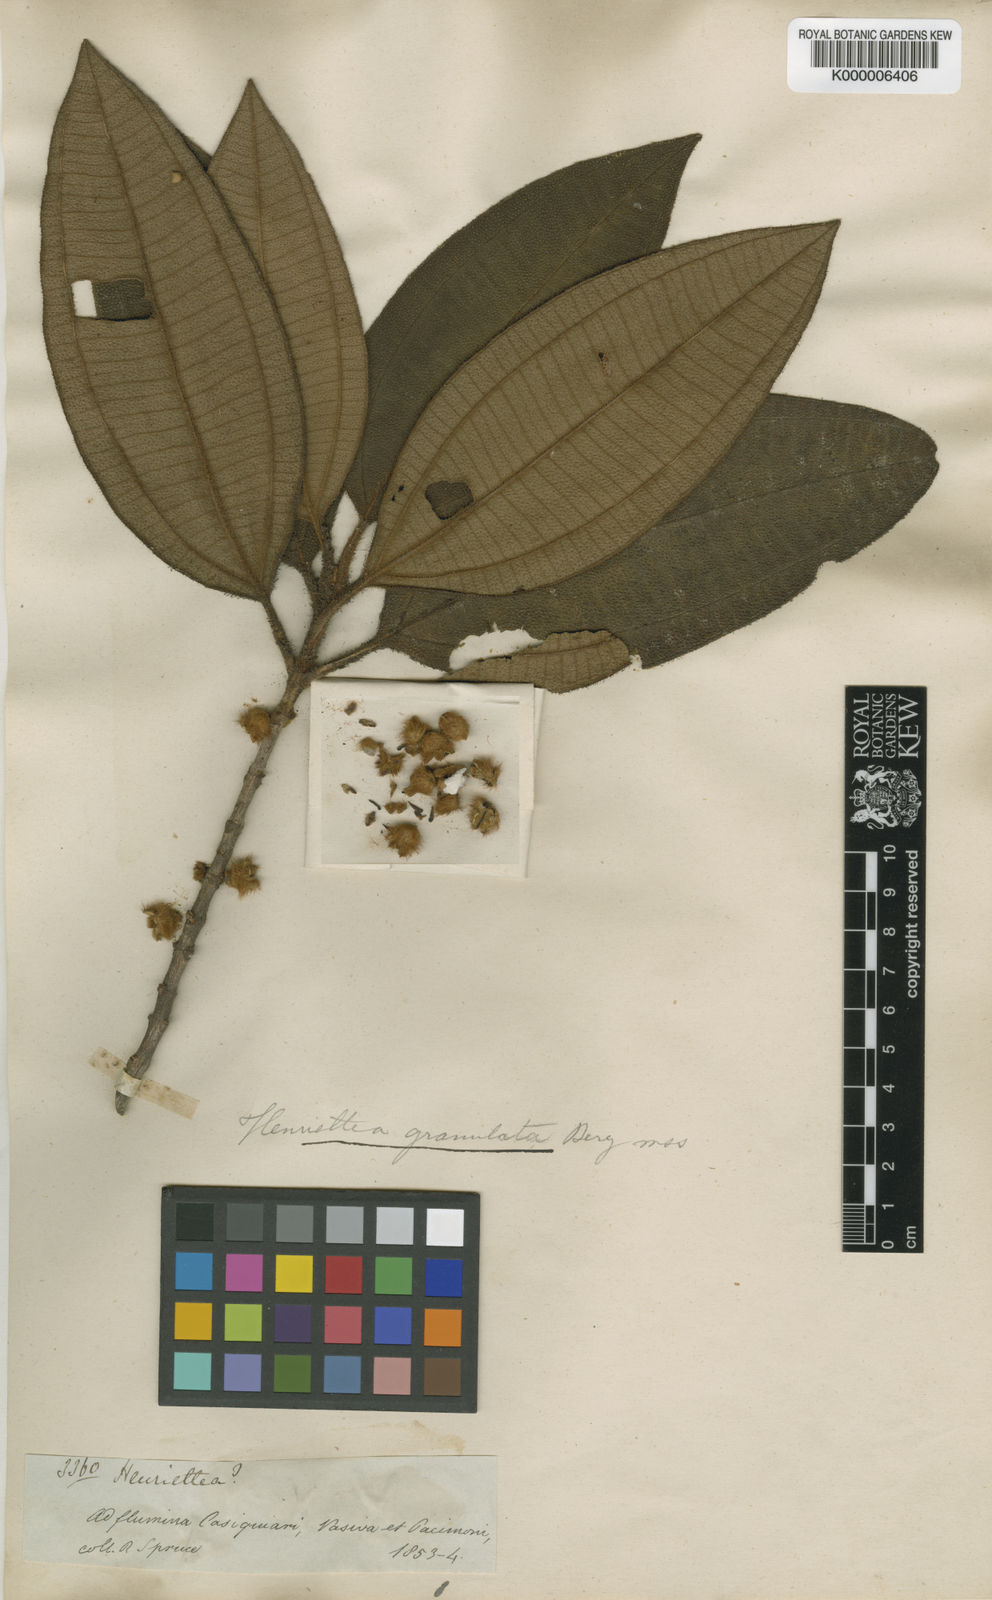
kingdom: Plantae
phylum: Tracheophyta
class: Magnoliopsida
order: Myrtales
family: Melastomataceae
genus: Henriettea
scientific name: Henriettea granulata
